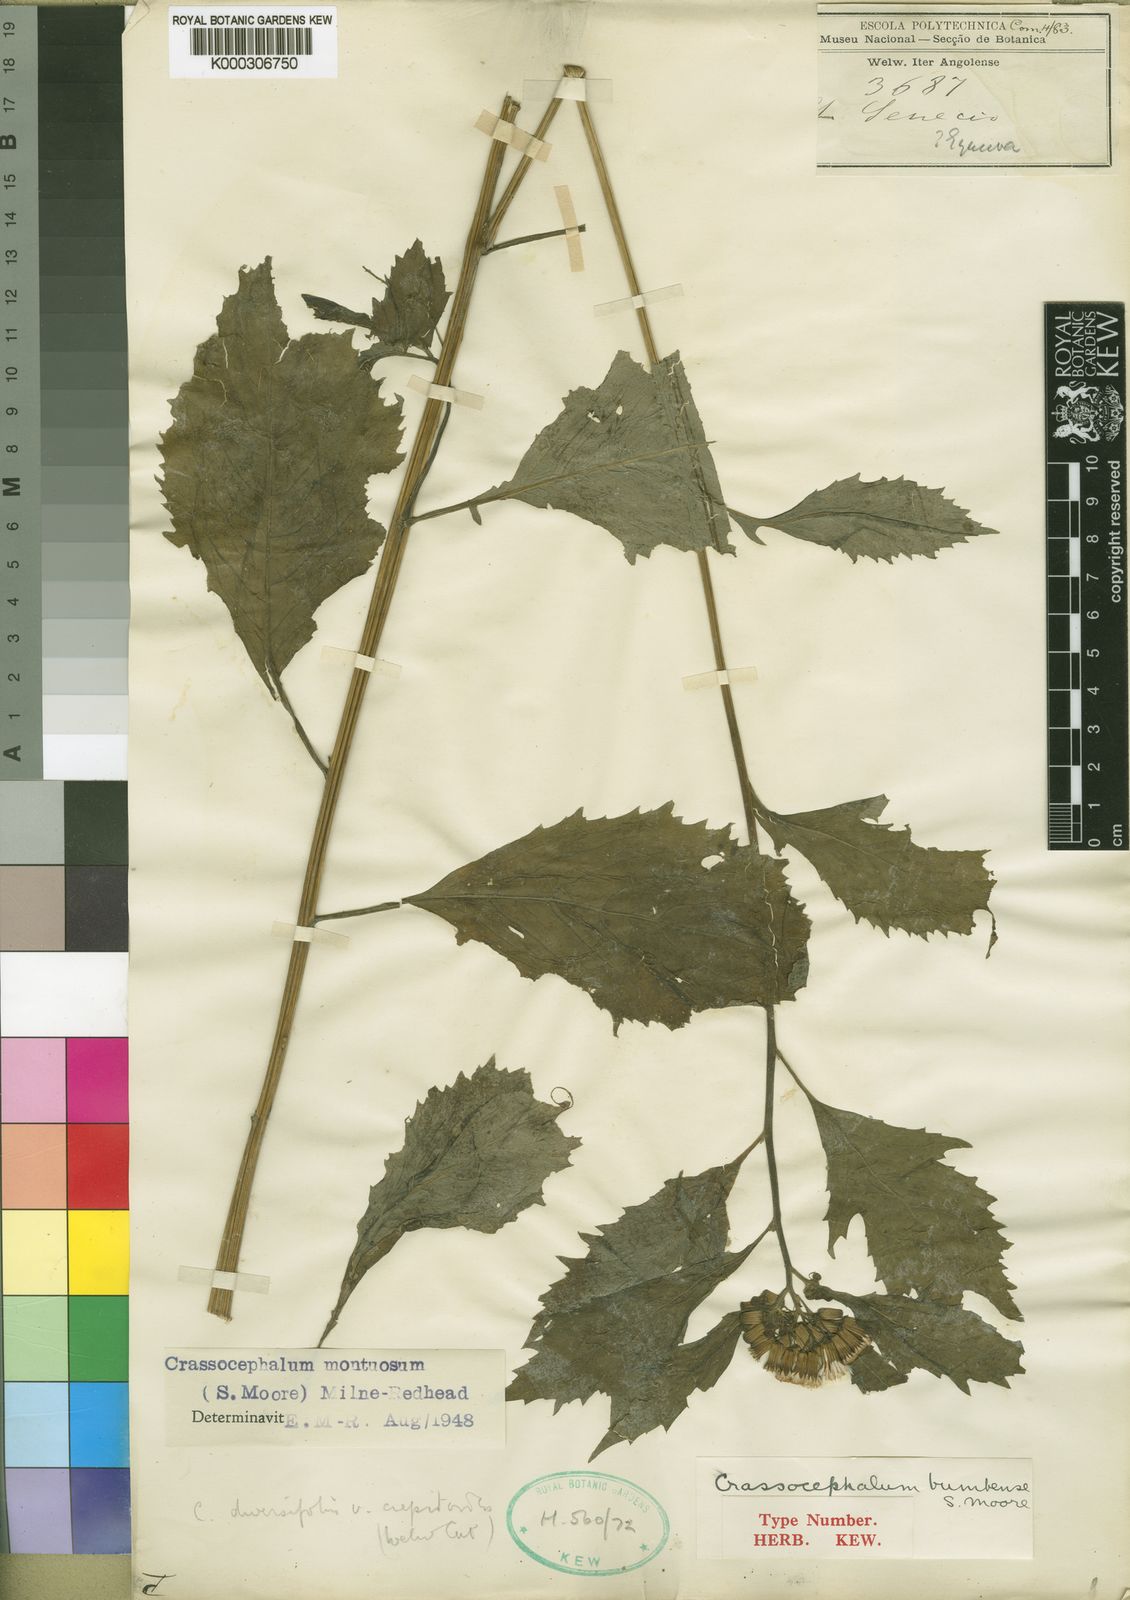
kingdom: Plantae
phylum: Tracheophyta
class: Magnoliopsida
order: Asterales
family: Asteraceae
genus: Crassocephalum
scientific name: Crassocephalum montuosum
